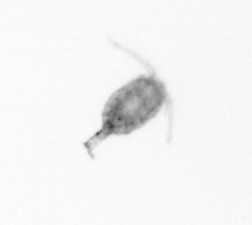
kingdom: Animalia
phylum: Arthropoda
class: Copepoda
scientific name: Copepoda
